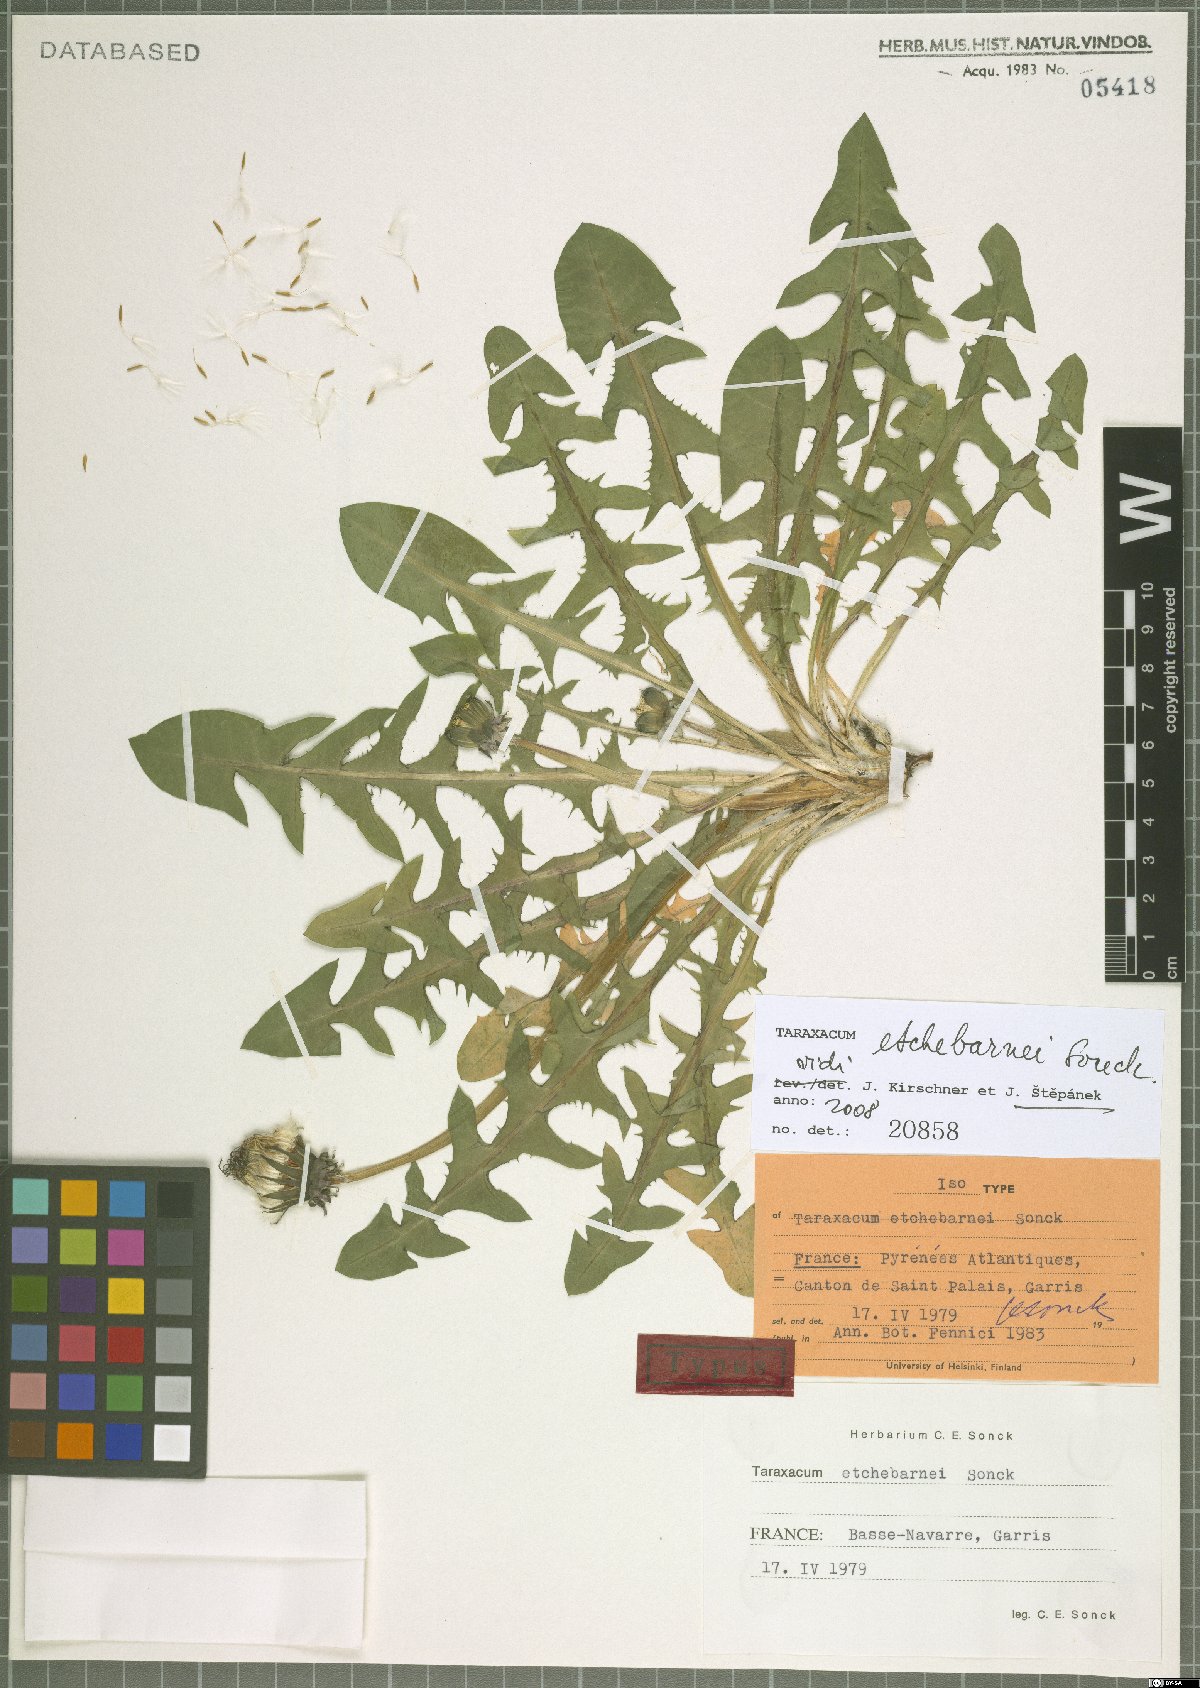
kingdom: Plantae
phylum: Tracheophyta
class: Magnoliopsida
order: Asterales
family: Asteraceae
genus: Taraxacum
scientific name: Taraxacum etchebarnei
